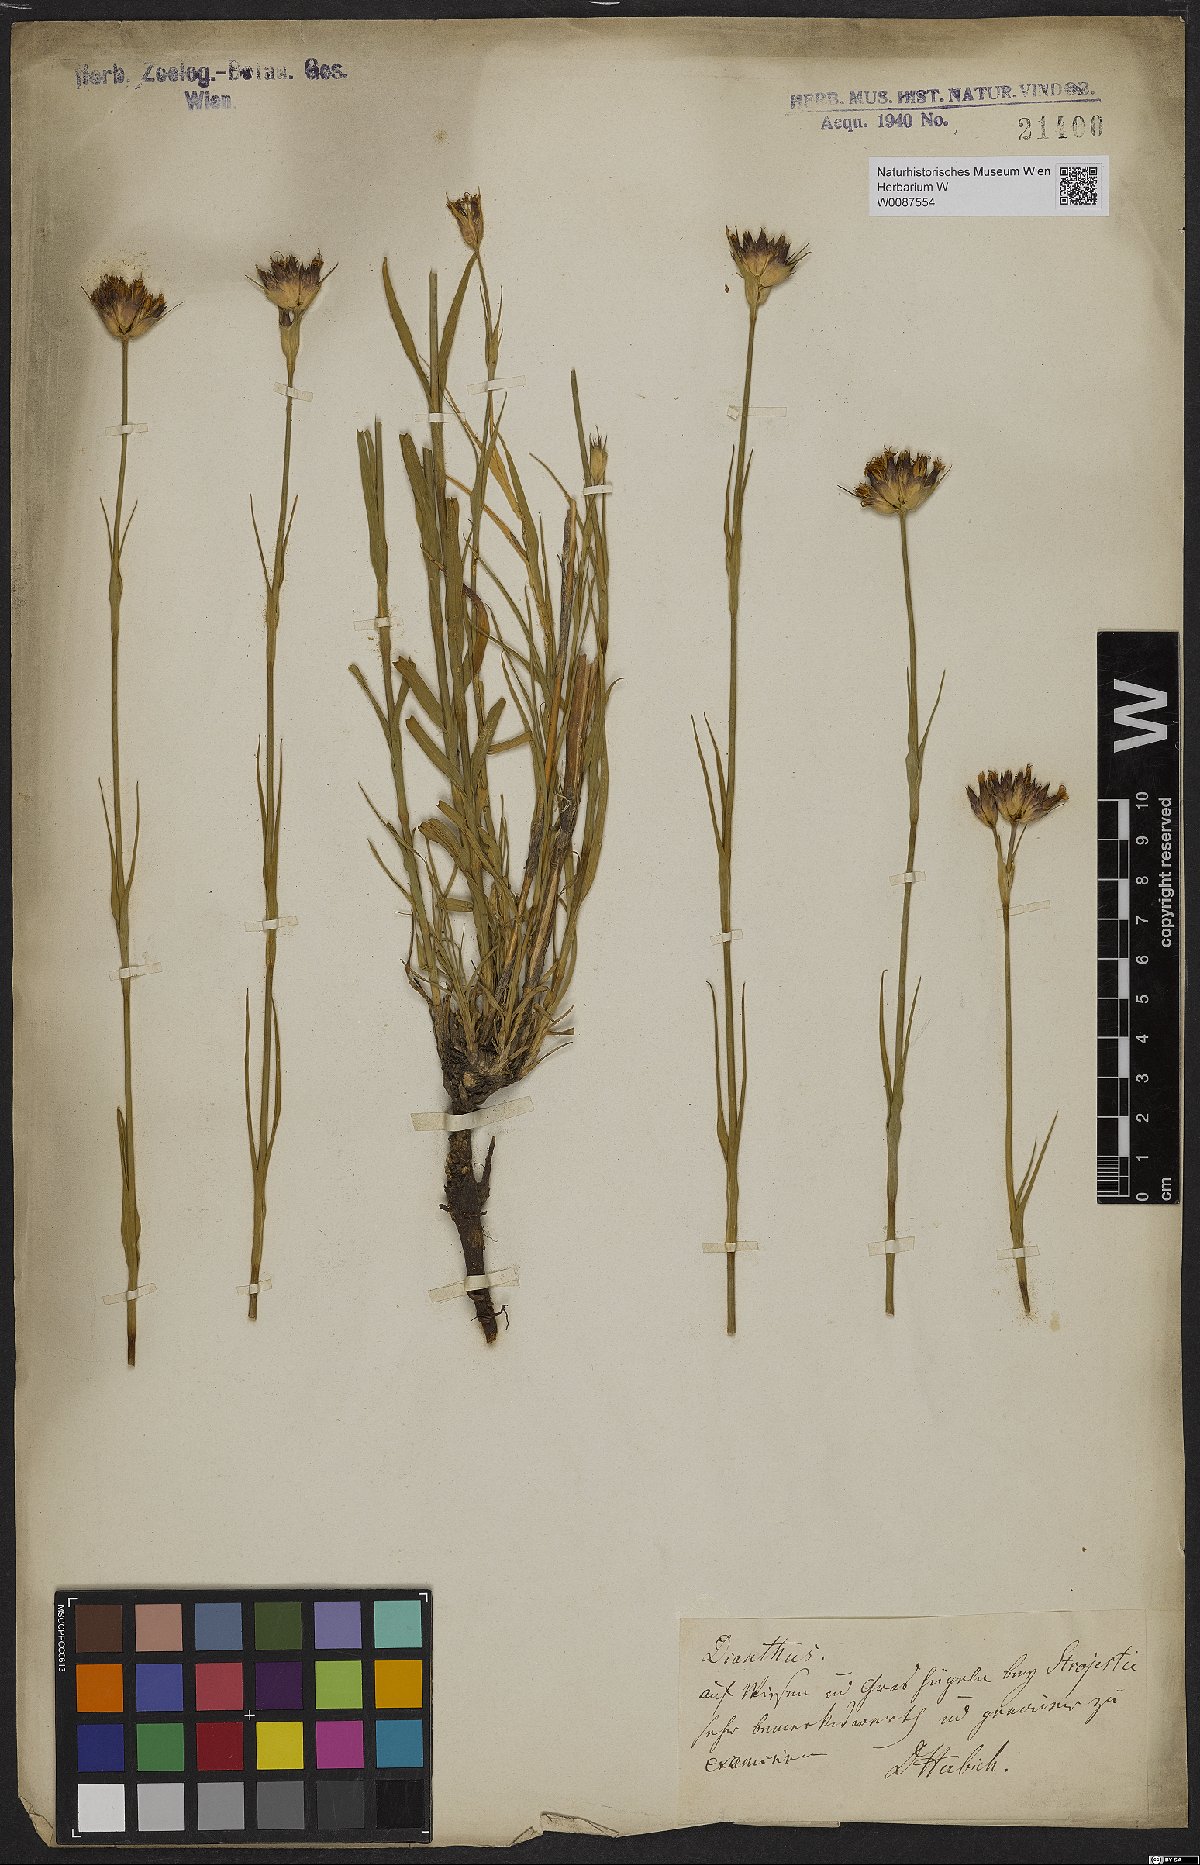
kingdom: Plantae
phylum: Tracheophyta
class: Magnoliopsida
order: Caryophyllales
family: Caryophyllaceae
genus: Dianthus
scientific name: Dianthus
